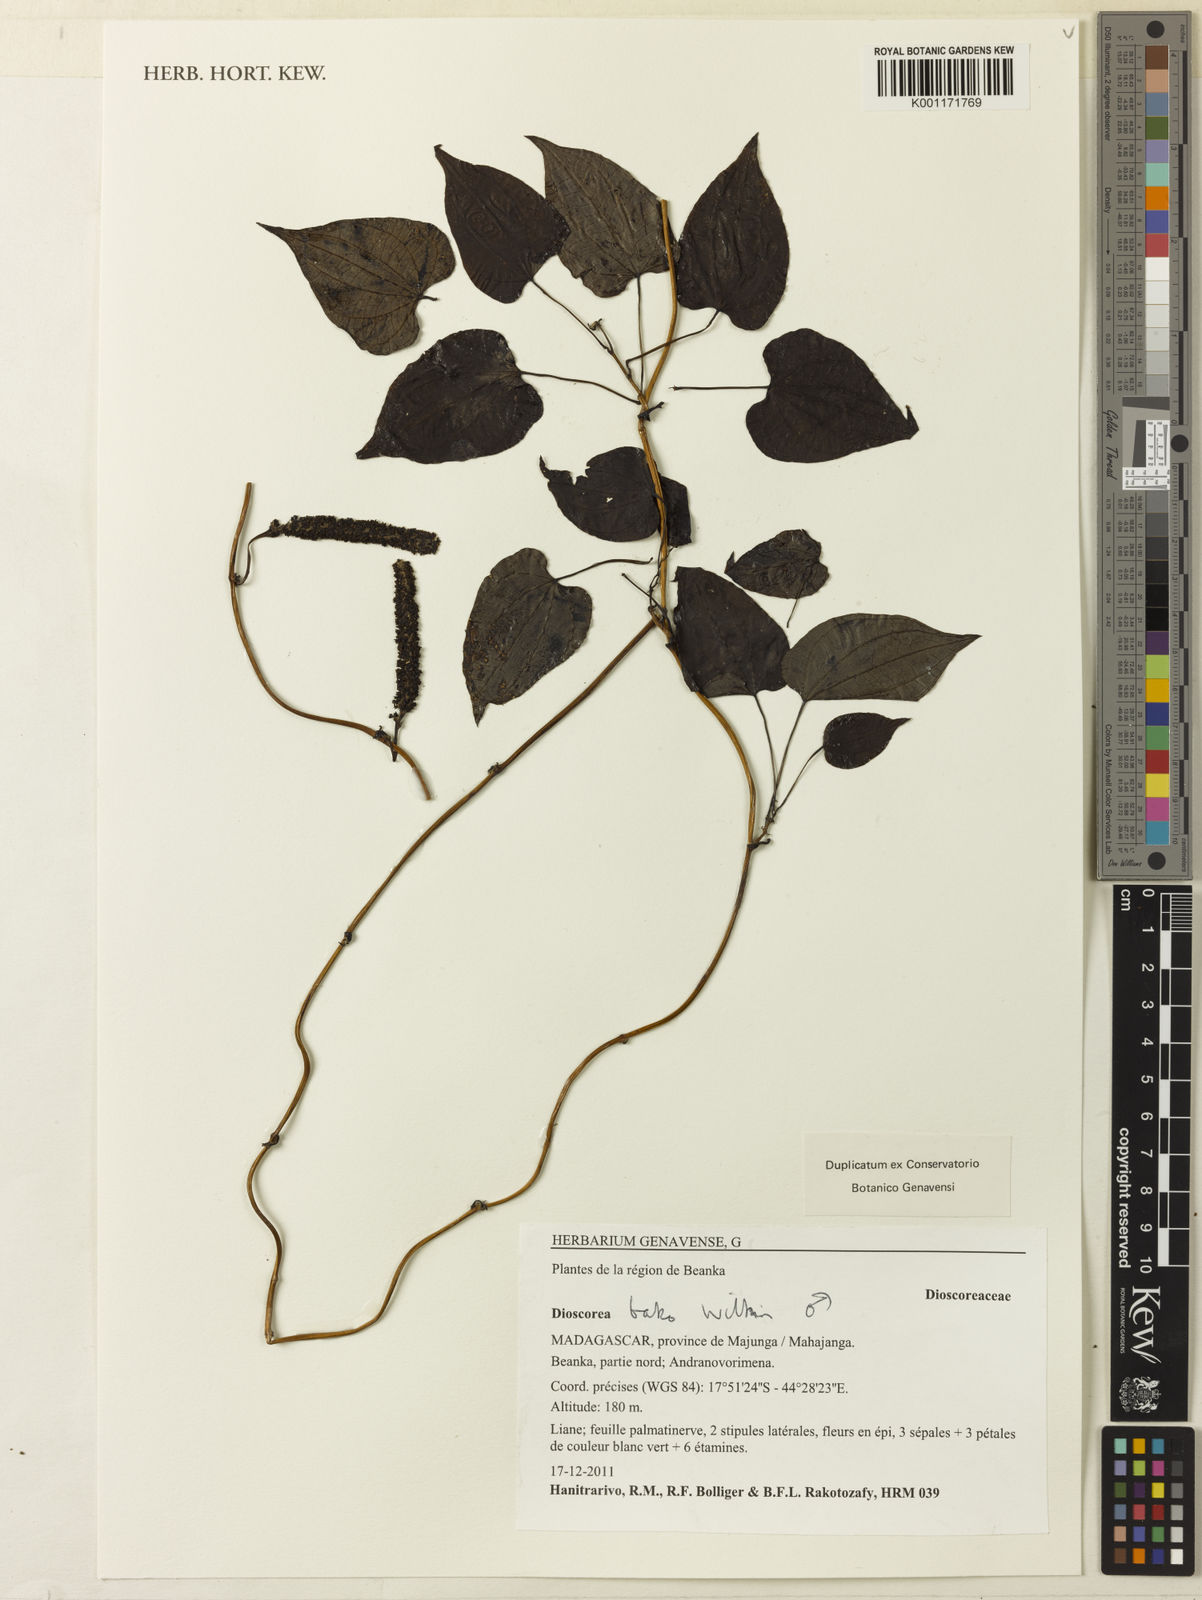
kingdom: Plantae
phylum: Tracheophyta
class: Liliopsida
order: Dioscoreales
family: Dioscoreaceae
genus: Dioscorea
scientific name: Dioscorea bako
